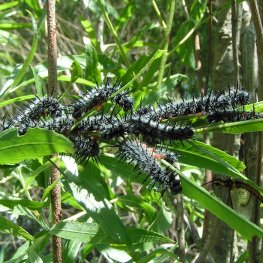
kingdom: Animalia
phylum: Arthropoda
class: Insecta
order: Lepidoptera
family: Nymphalidae
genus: Nymphalis
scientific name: Nymphalis antiopa
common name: Mourning Cloak
